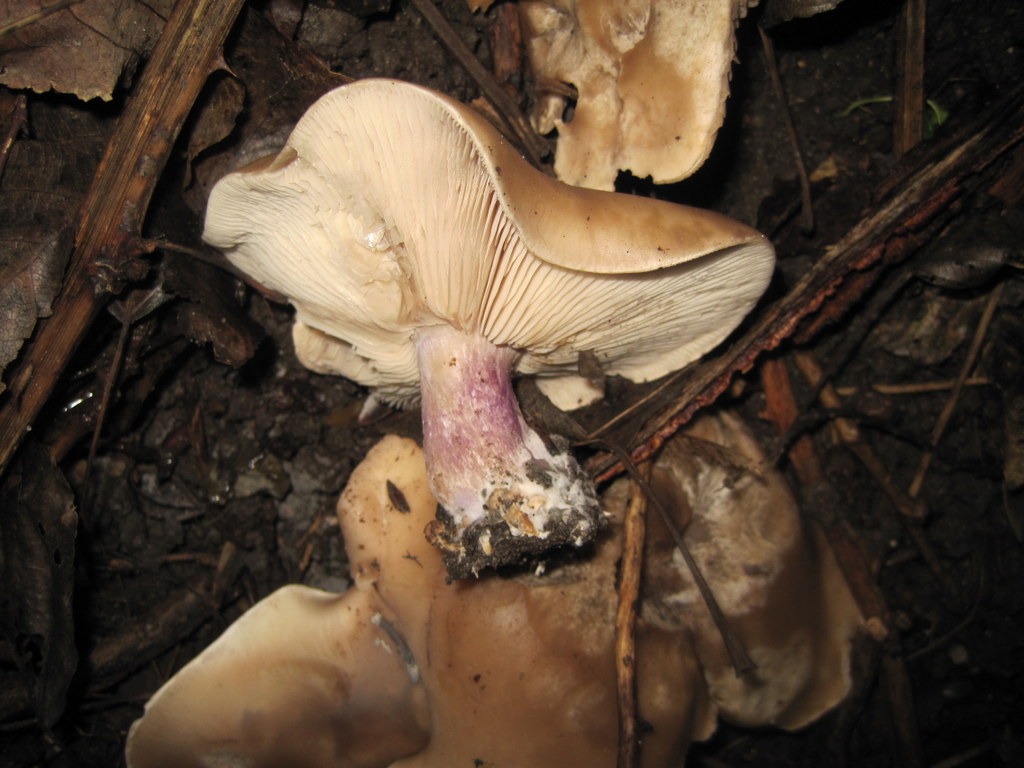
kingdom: Fungi
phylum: Basidiomycota
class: Agaricomycetes
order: Agaricales
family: Tricholomataceae
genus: Lepista
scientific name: Lepista personata
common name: bleg hekseringshat
